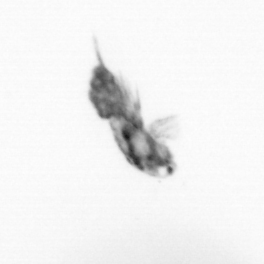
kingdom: Animalia
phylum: Arthropoda
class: Copepoda
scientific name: Copepoda
